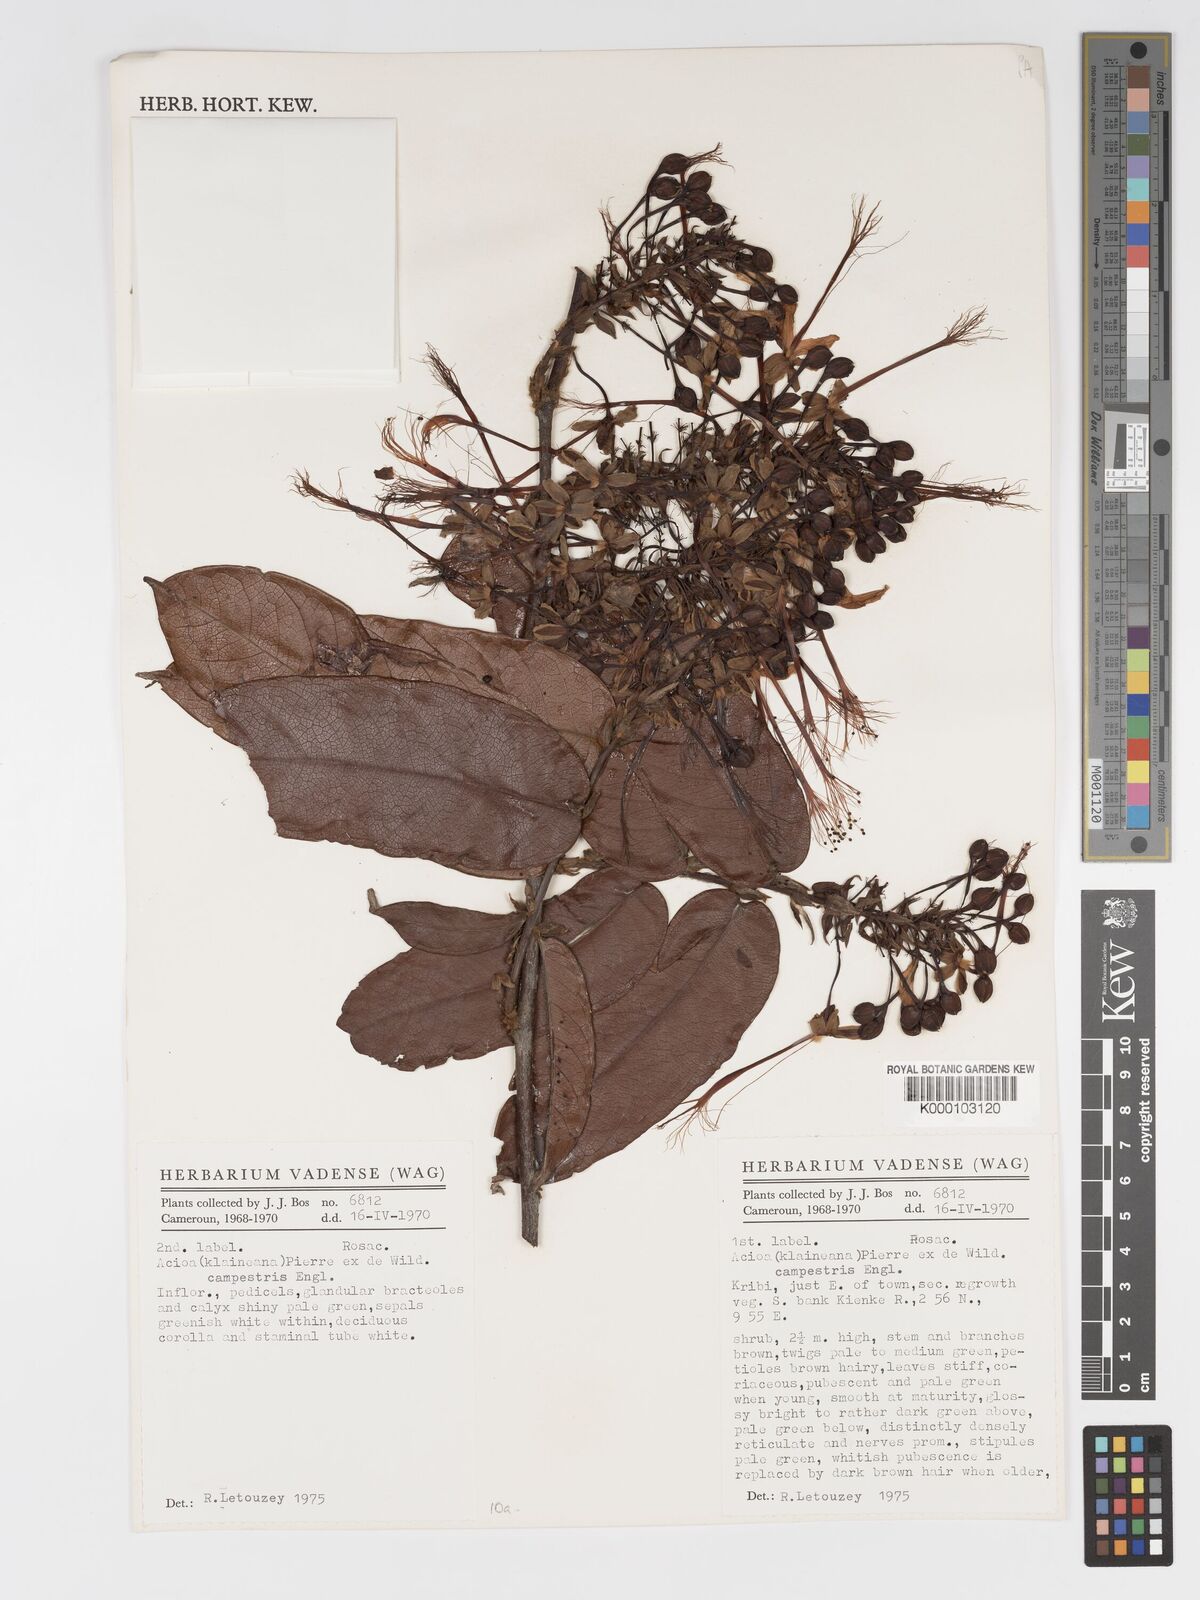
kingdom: Plantae
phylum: Tracheophyta
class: Magnoliopsida
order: Malpighiales
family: Chrysobalanaceae
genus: Dactyladenia
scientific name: Dactyladenia campestris
